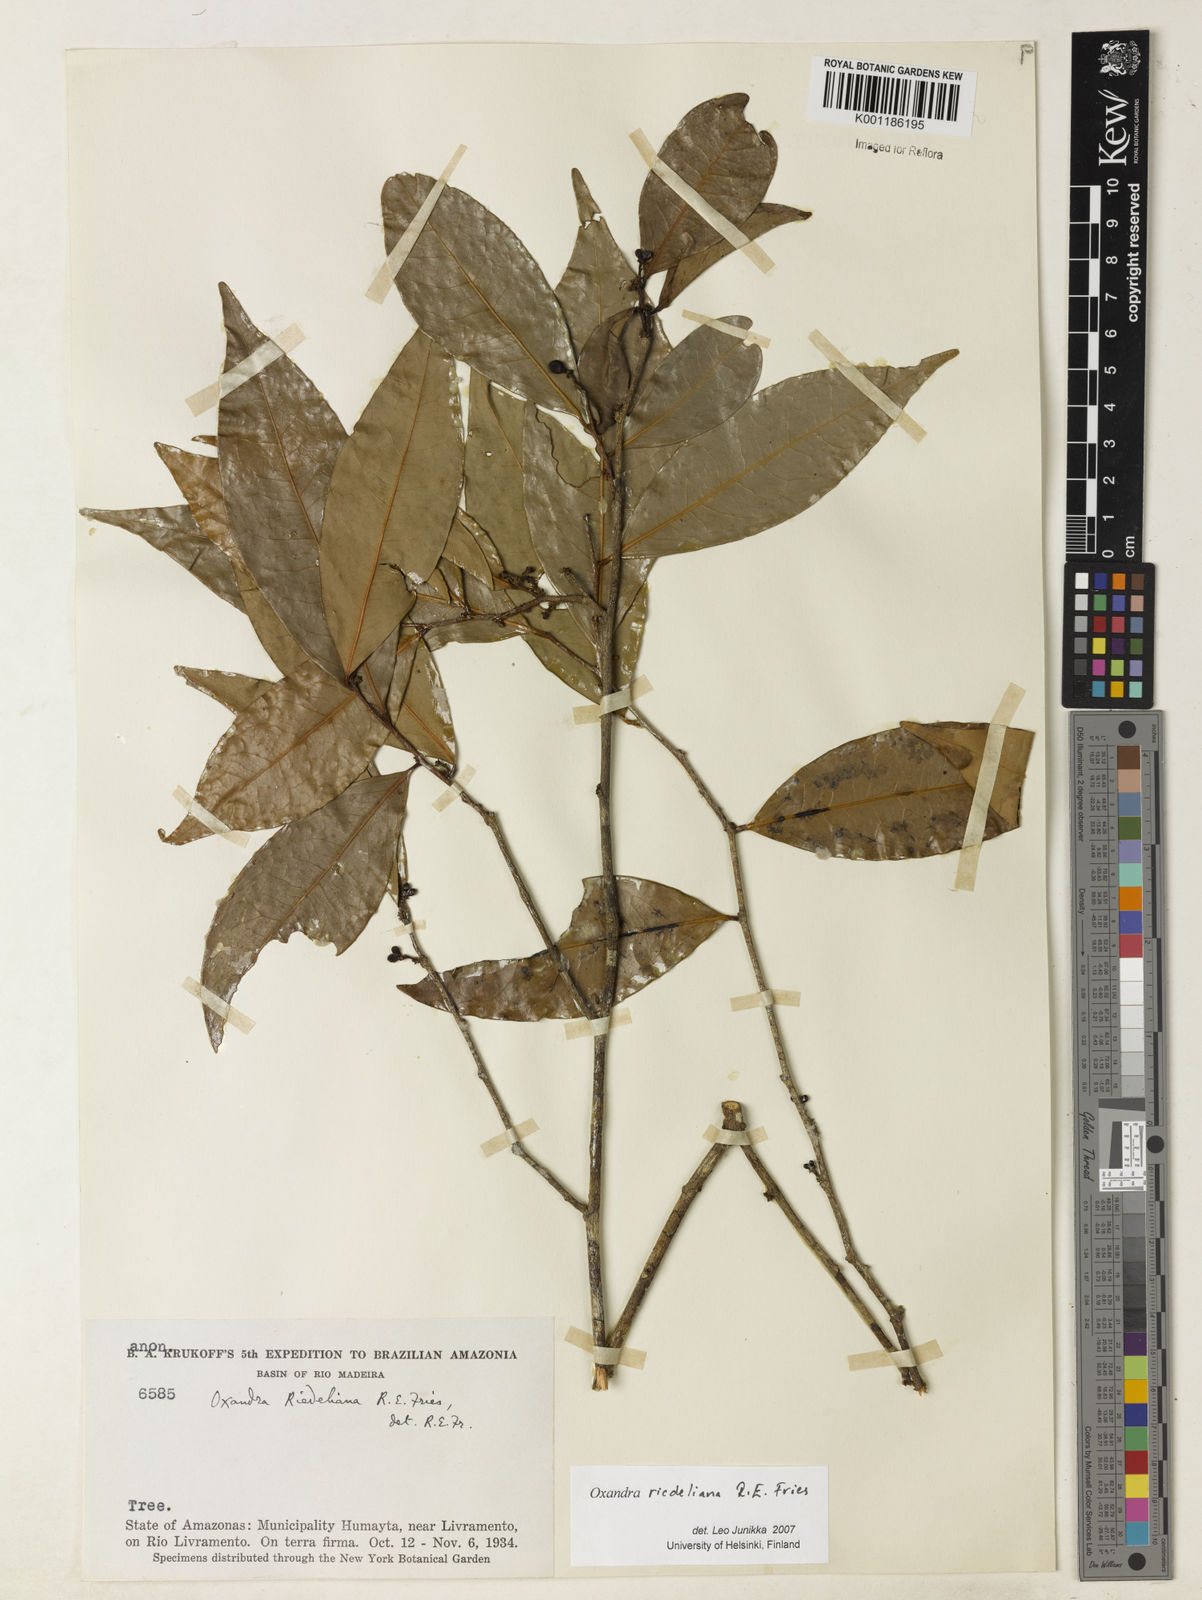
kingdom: Plantae
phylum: Tracheophyta
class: Magnoliopsida
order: Magnoliales
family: Annonaceae
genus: Oxandra
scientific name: Oxandra riedeliana
